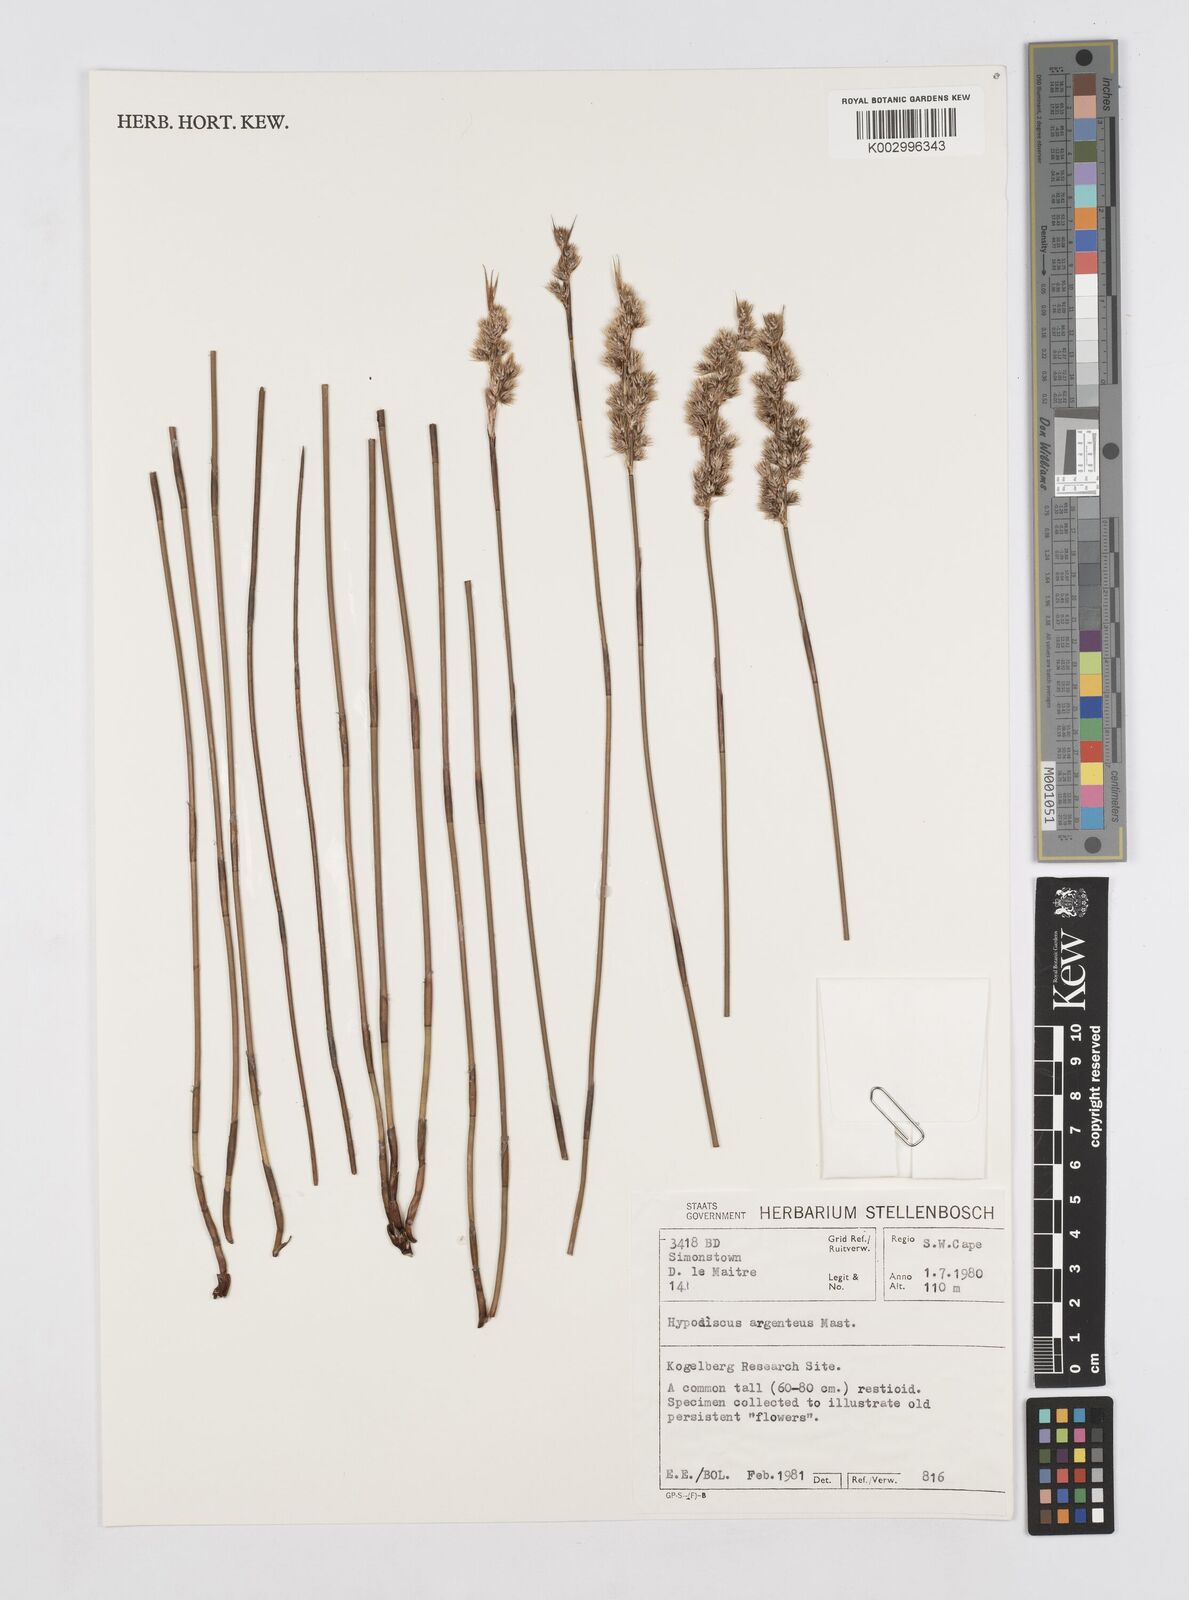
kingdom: Plantae
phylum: Tracheophyta
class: Liliopsida
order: Poales
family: Restionaceae
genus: Hypodiscus
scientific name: Hypodiscus argenteus
